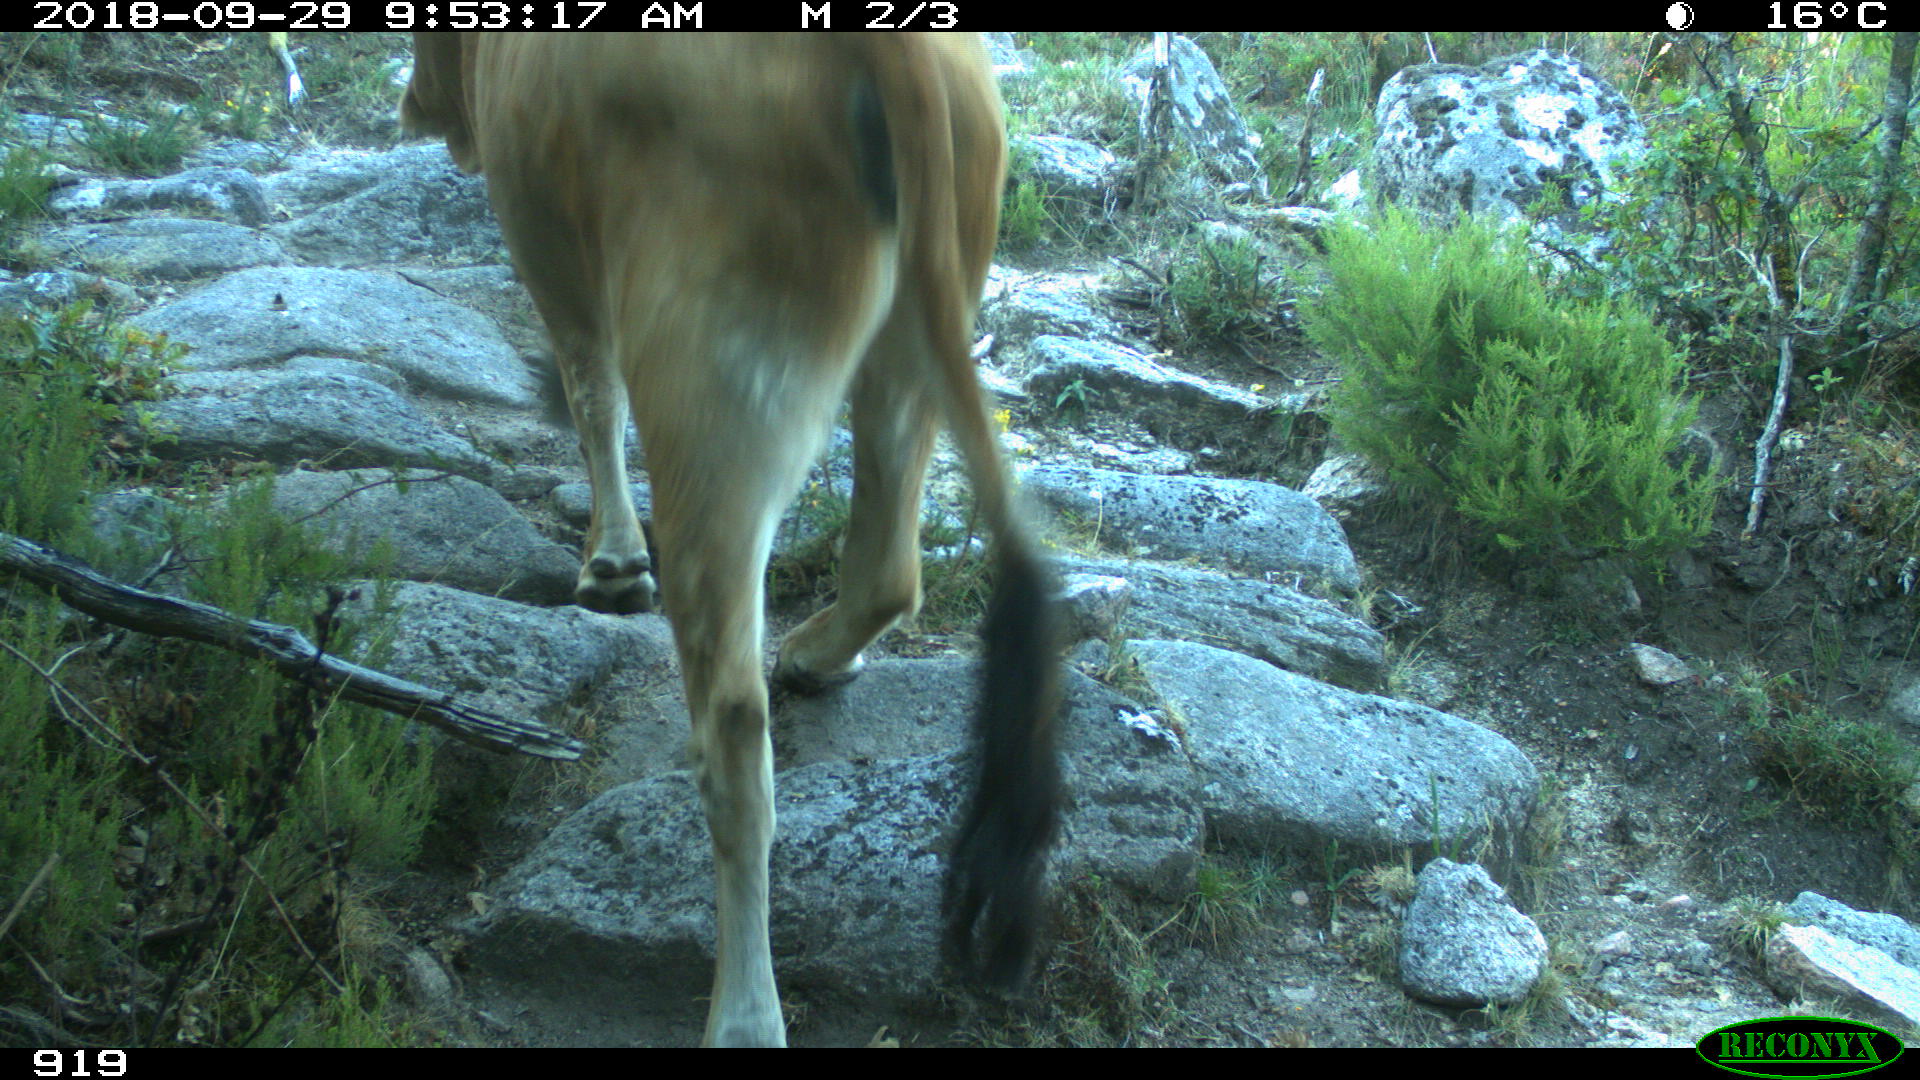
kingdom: Animalia
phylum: Chordata
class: Mammalia
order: Artiodactyla
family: Bovidae
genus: Bos
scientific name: Bos taurus
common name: Domesticated cattle
